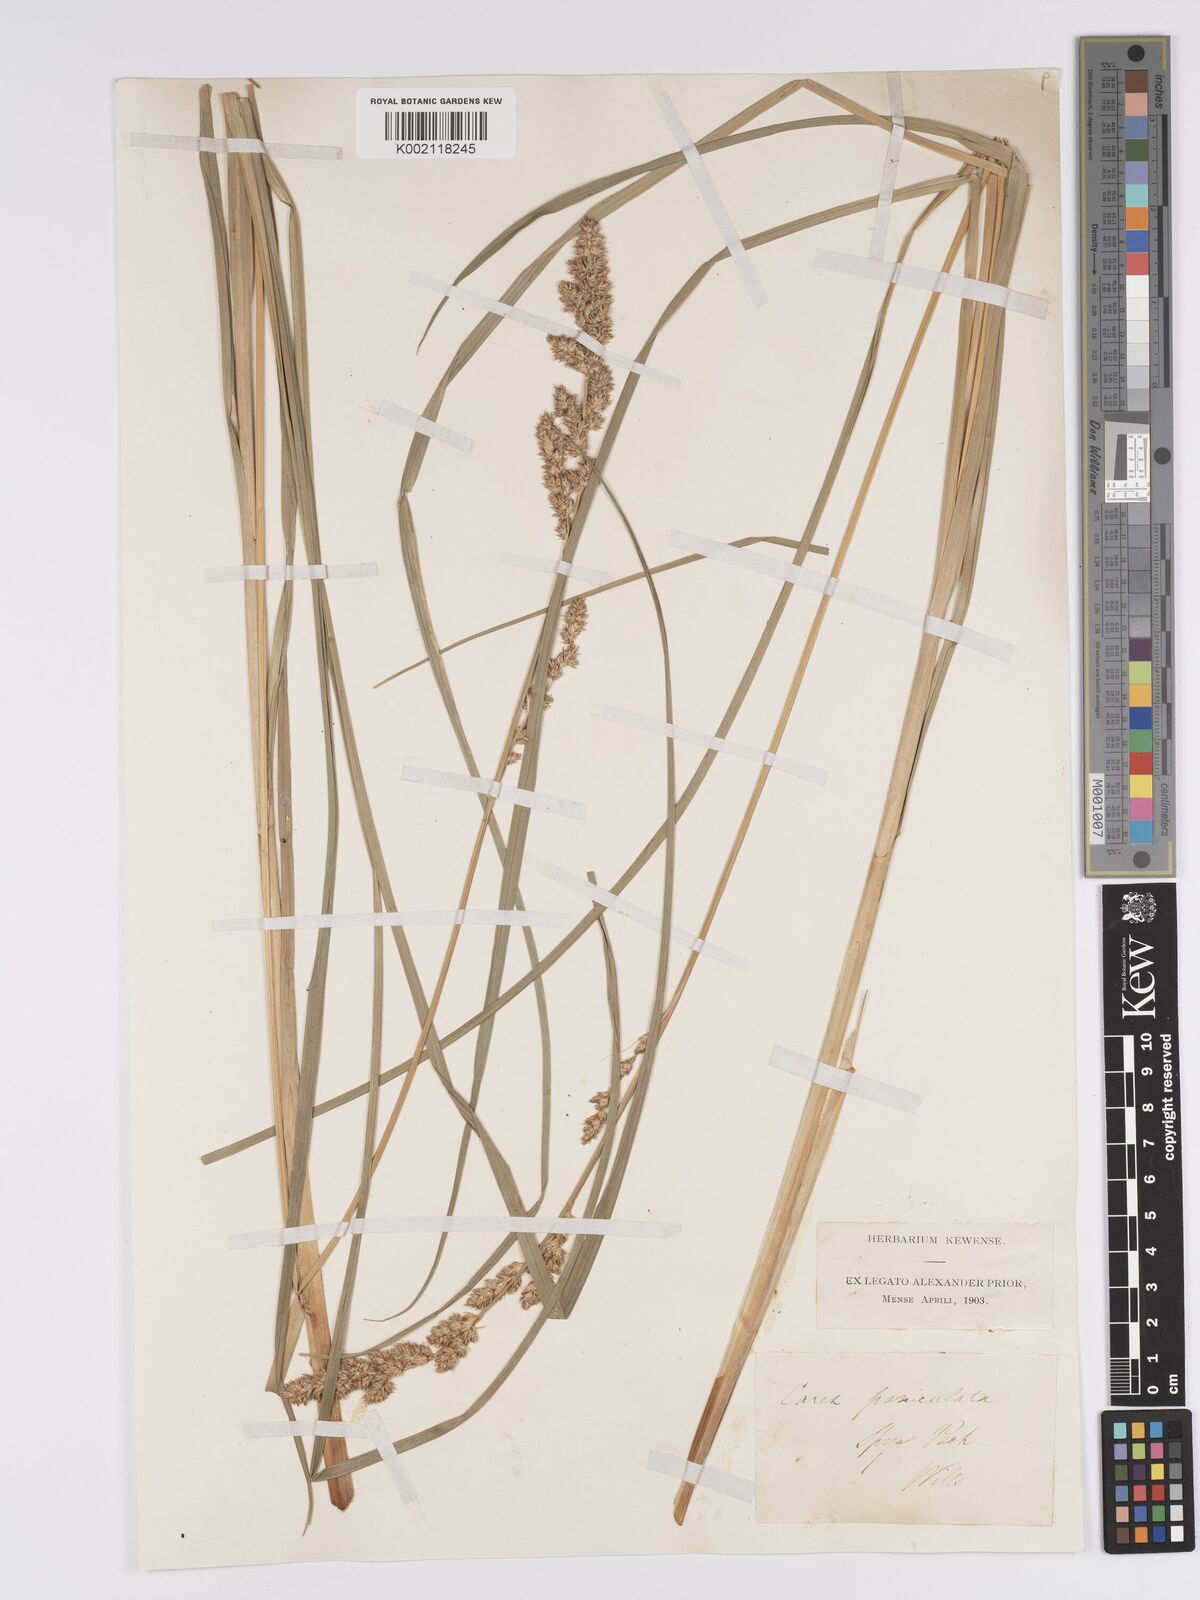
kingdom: Plantae
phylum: Tracheophyta
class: Liliopsida
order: Poales
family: Cyperaceae
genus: Carex
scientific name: Carex paniculata
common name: Greater tussock-sedge
